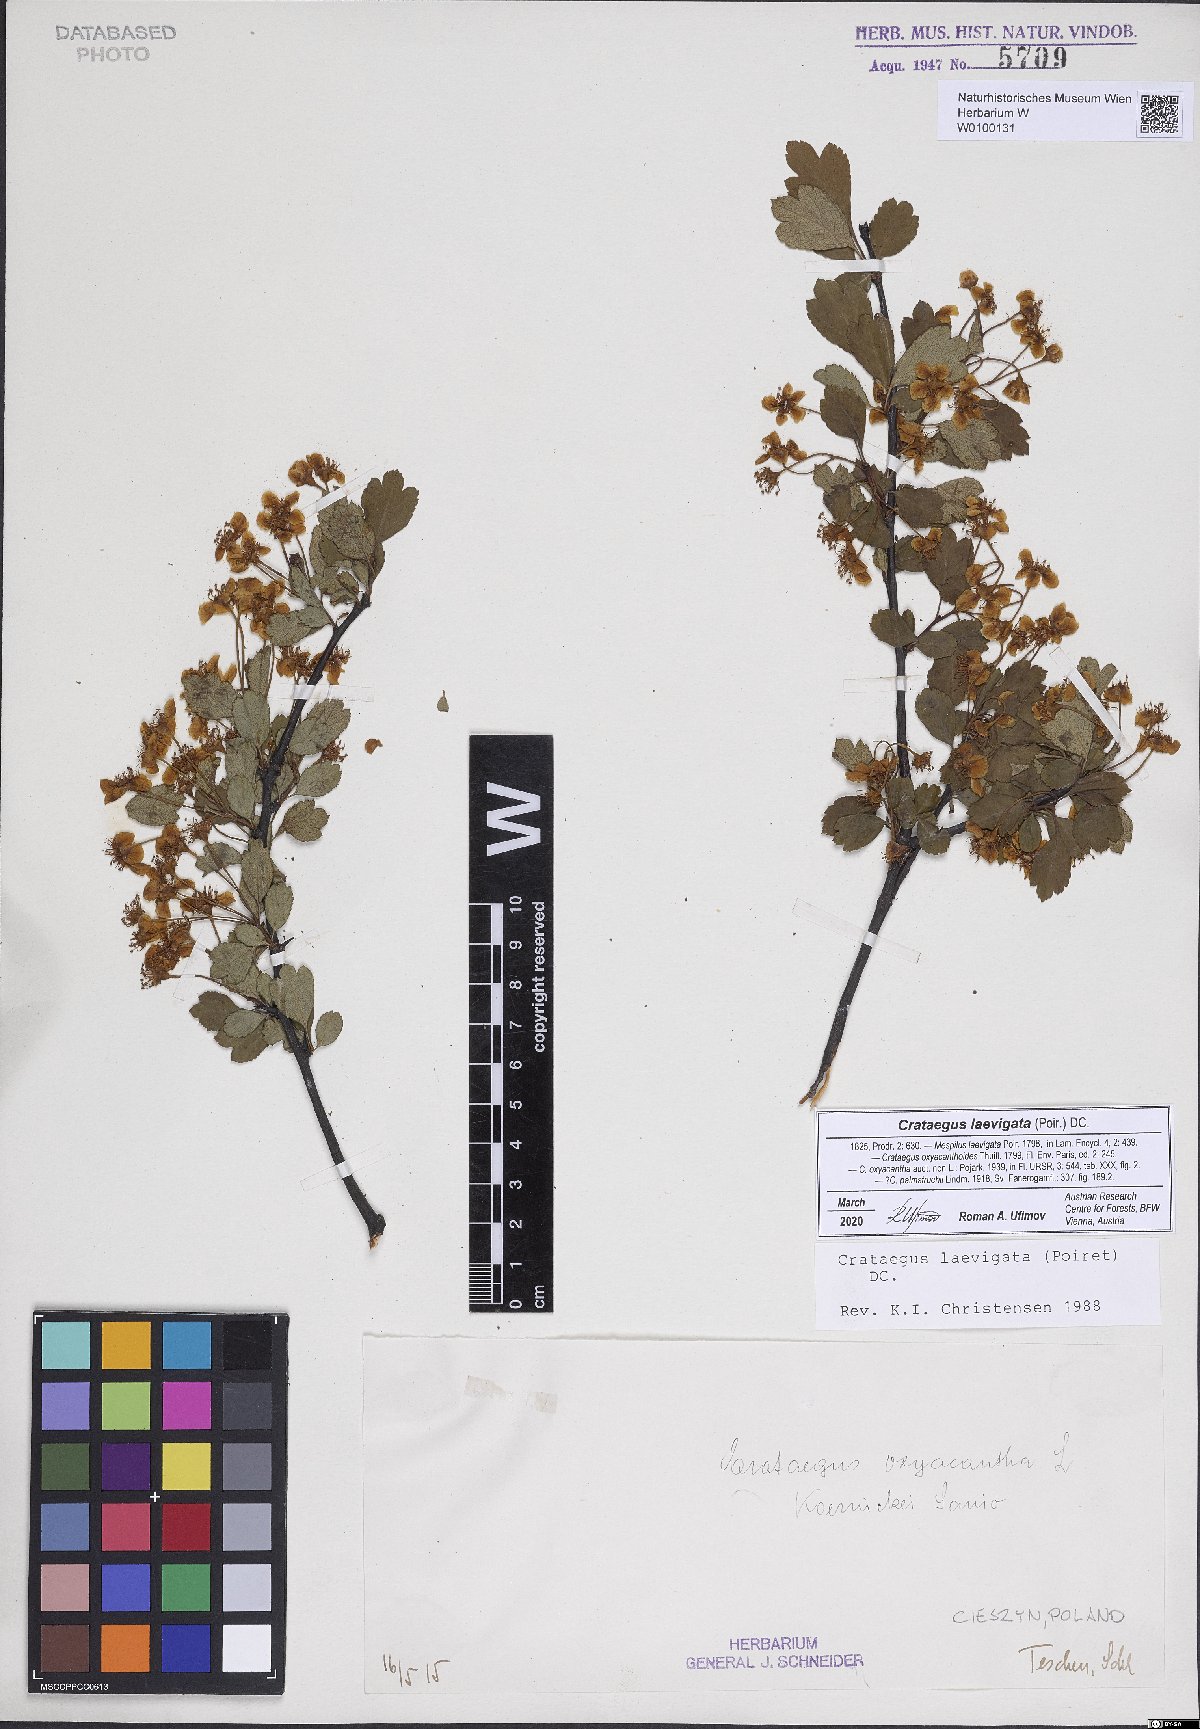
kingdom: Plantae
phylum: Tracheophyta
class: Magnoliopsida
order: Rosales
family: Rosaceae
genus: Crataegus
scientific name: Crataegus laevigata
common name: Midland hawthorn
